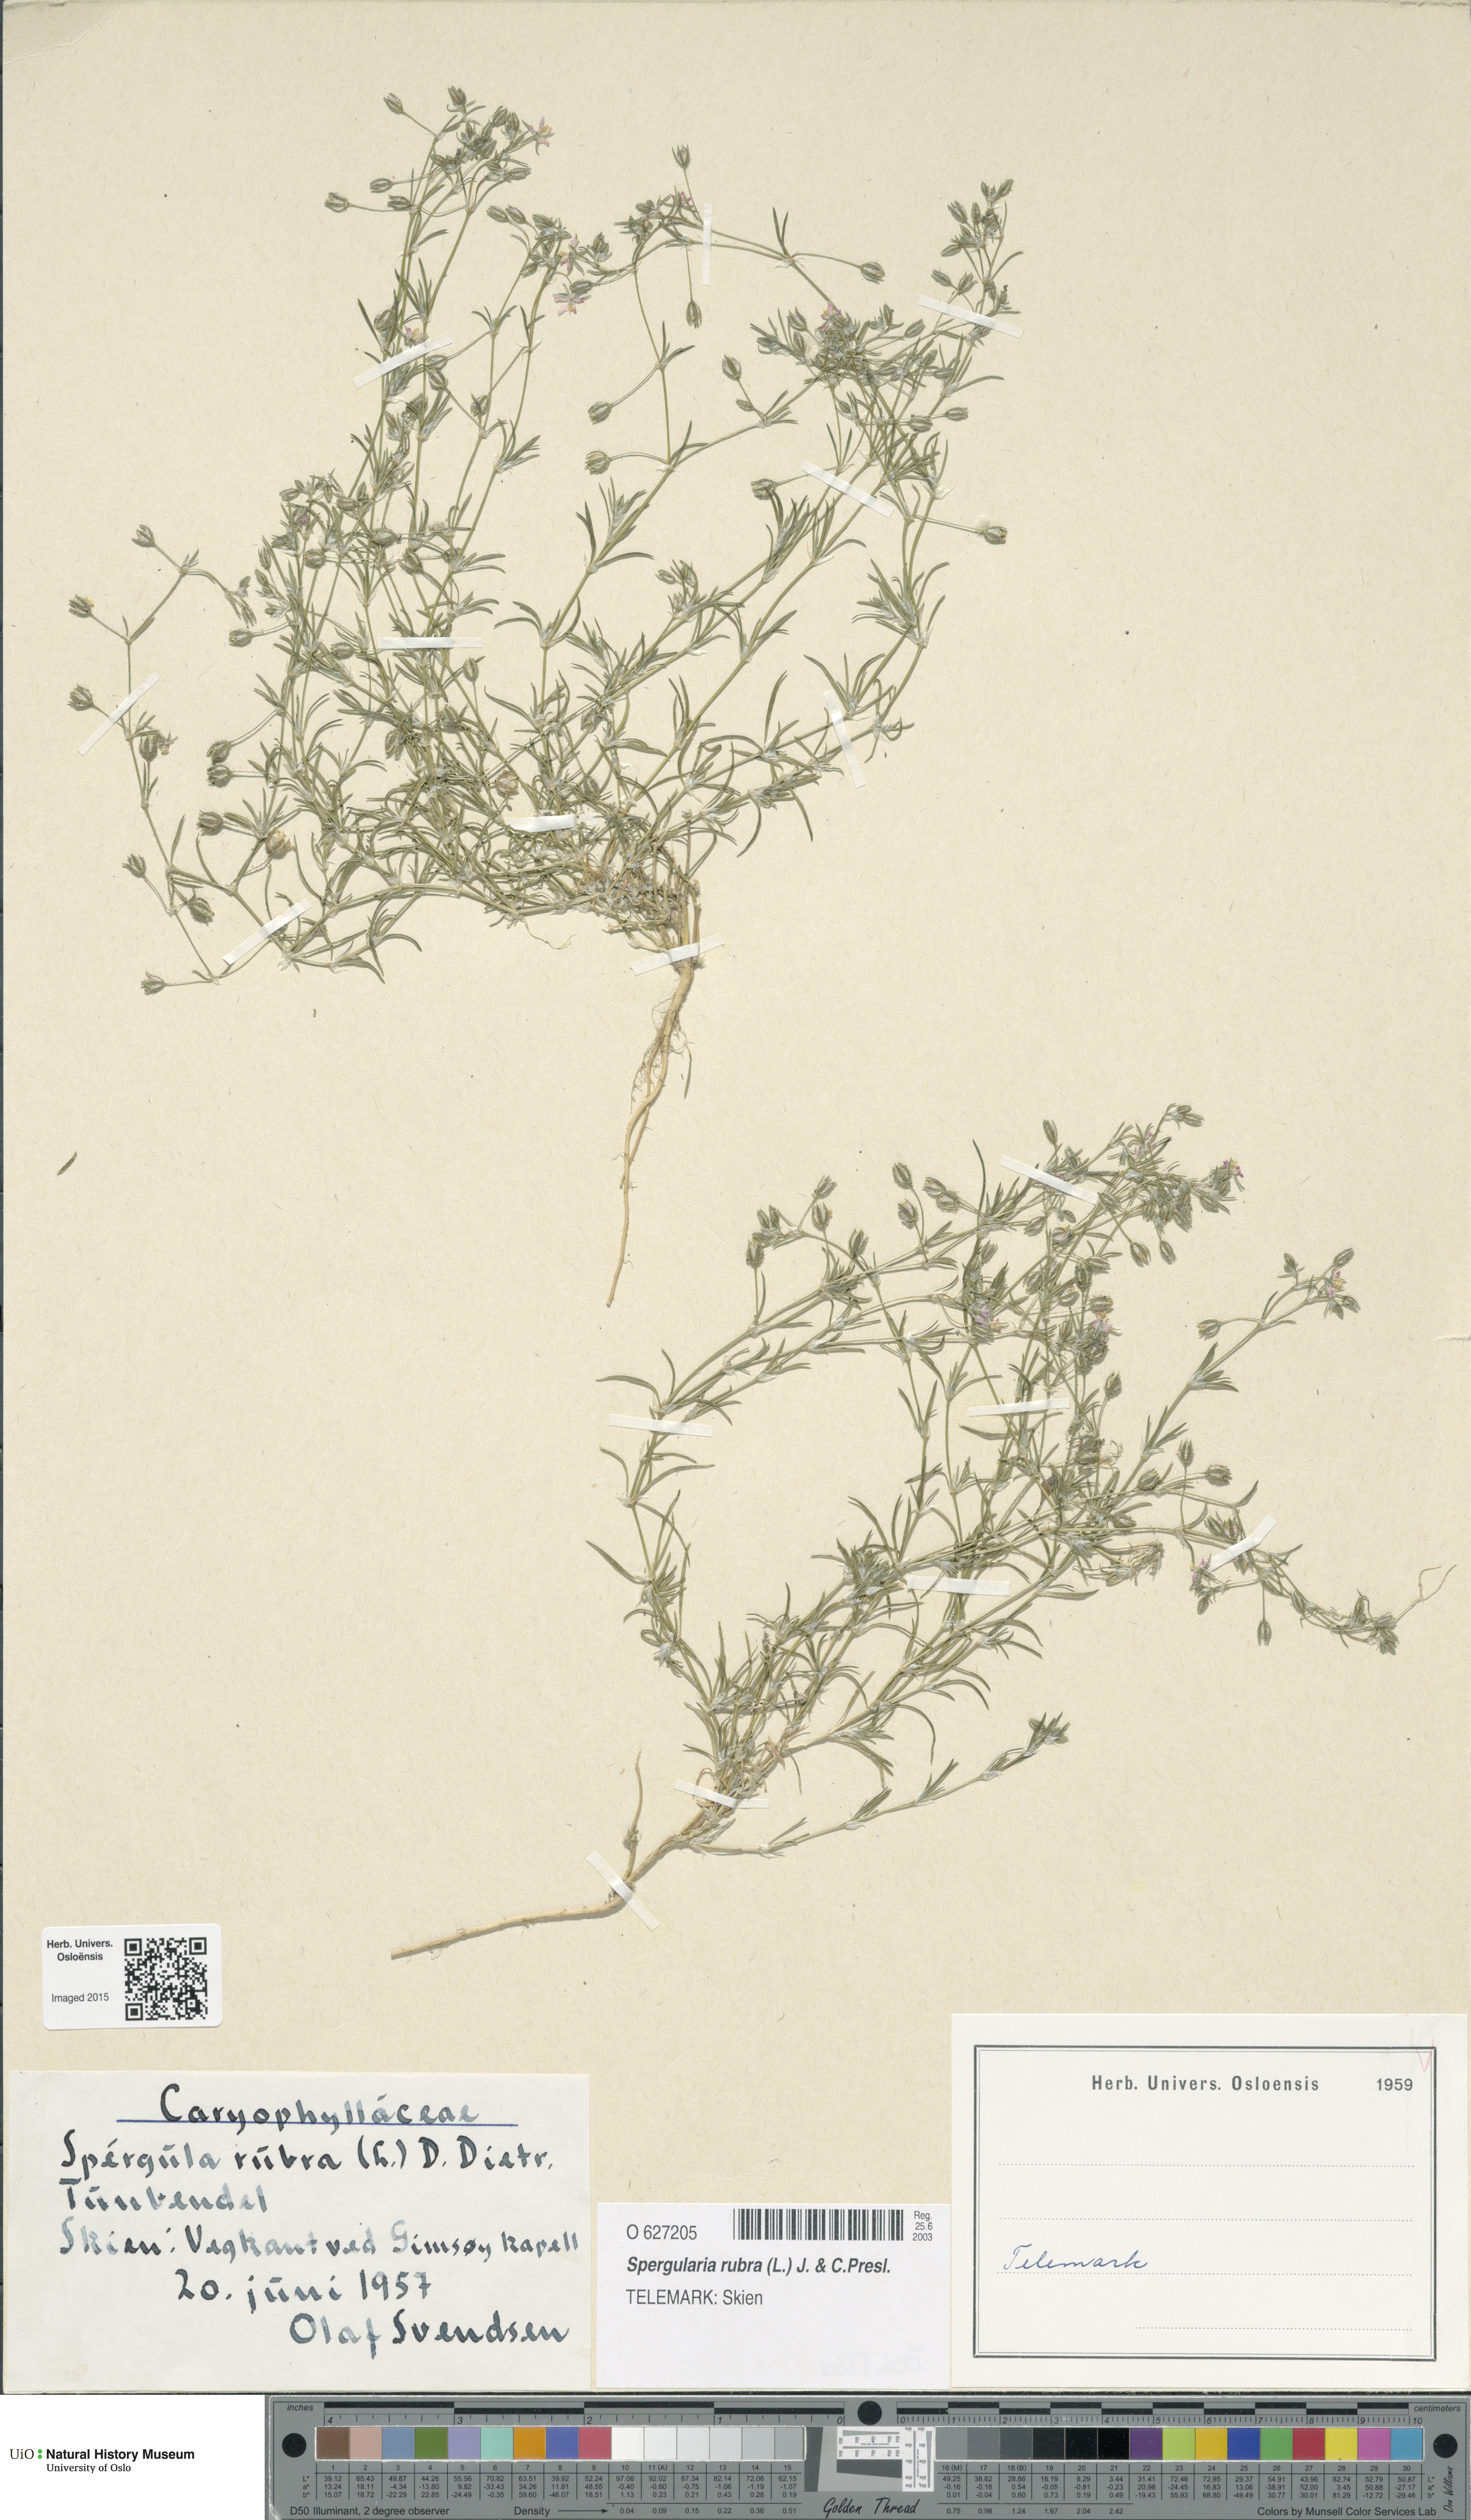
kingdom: Plantae
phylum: Tracheophyta
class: Magnoliopsida
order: Caryophyllales
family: Caryophyllaceae
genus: Spergularia
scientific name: Spergularia rubra
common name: Red sand-spurrey
